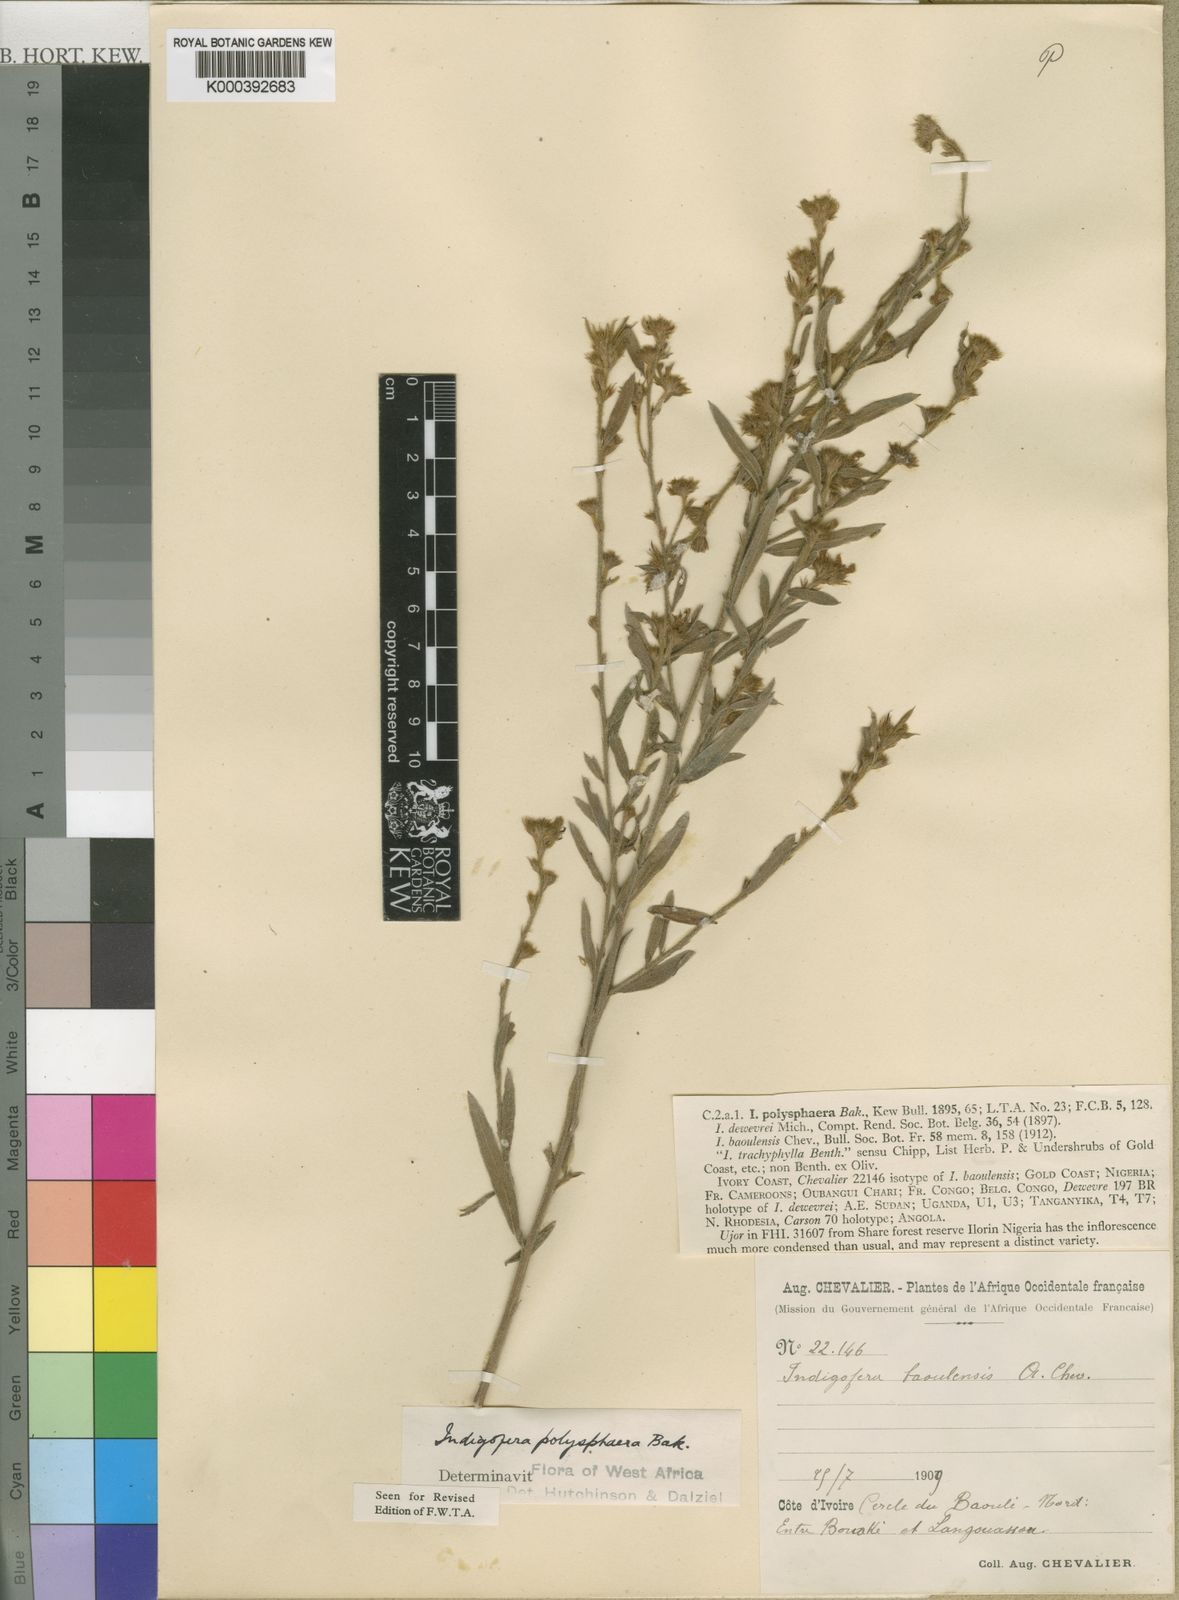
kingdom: Plantae
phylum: Tracheophyta
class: Magnoliopsida
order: Fabales
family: Fabaceae
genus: Indigofera
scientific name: Indigofera polysphaera
